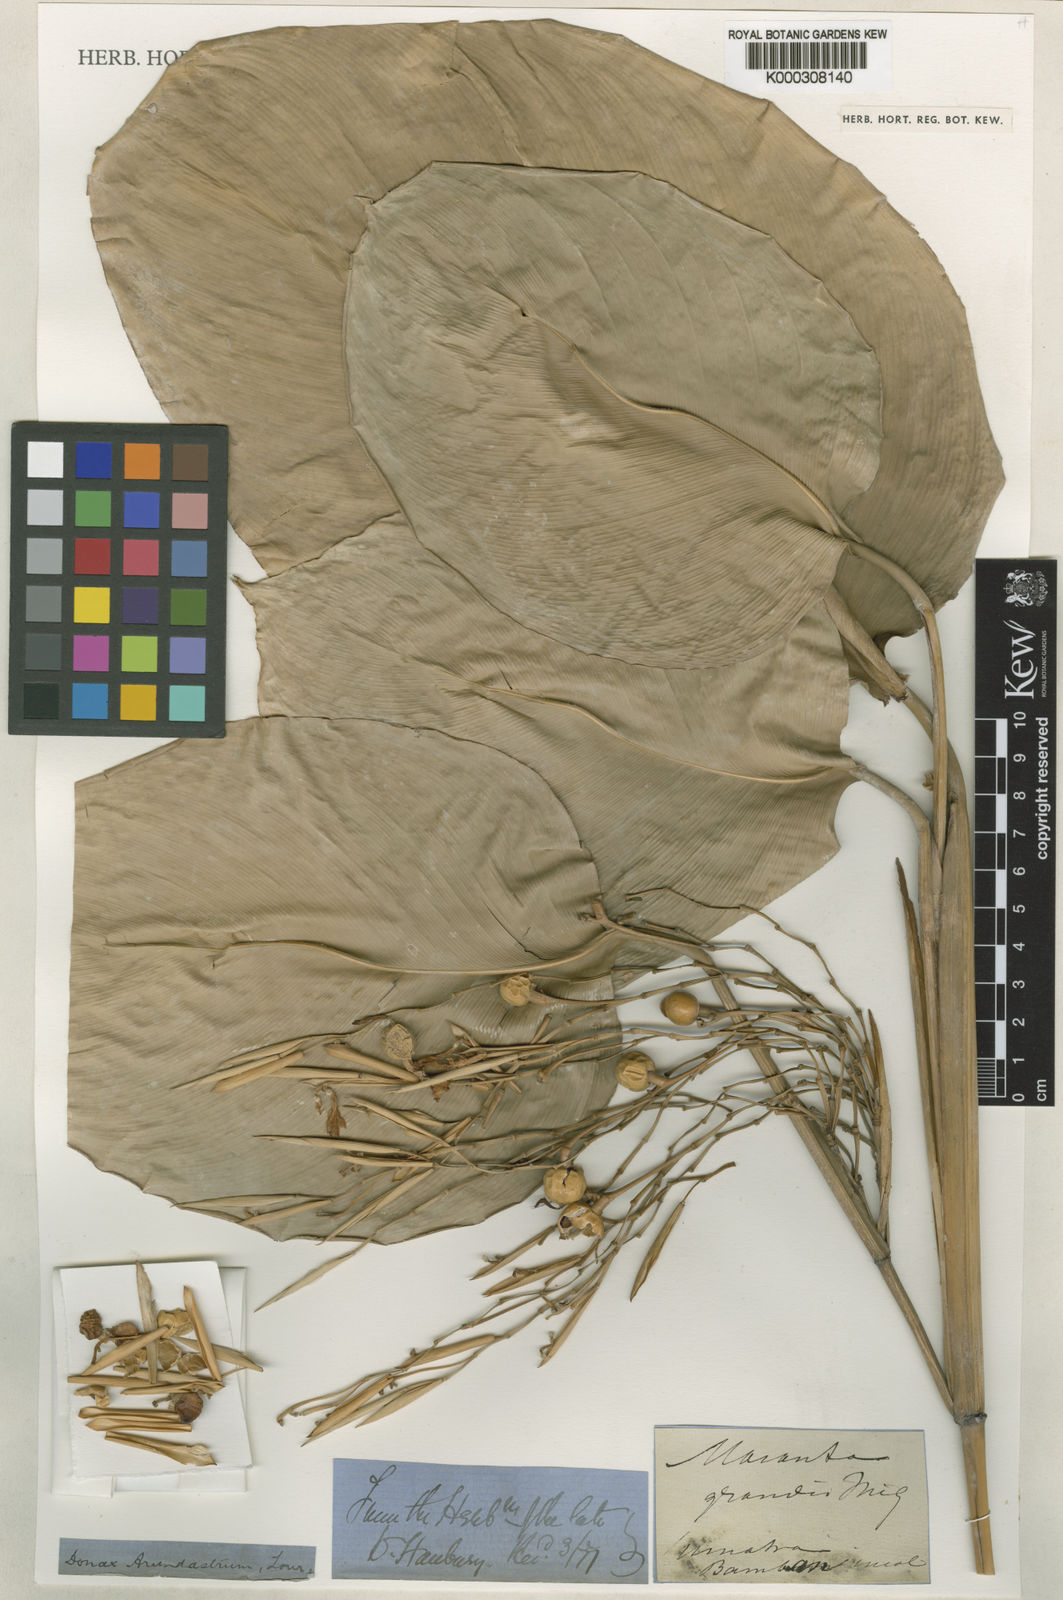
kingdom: Plantae
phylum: Tracheophyta
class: Liliopsida
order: Zingiberales
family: Marantaceae
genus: Donax
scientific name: Donax canniformis
